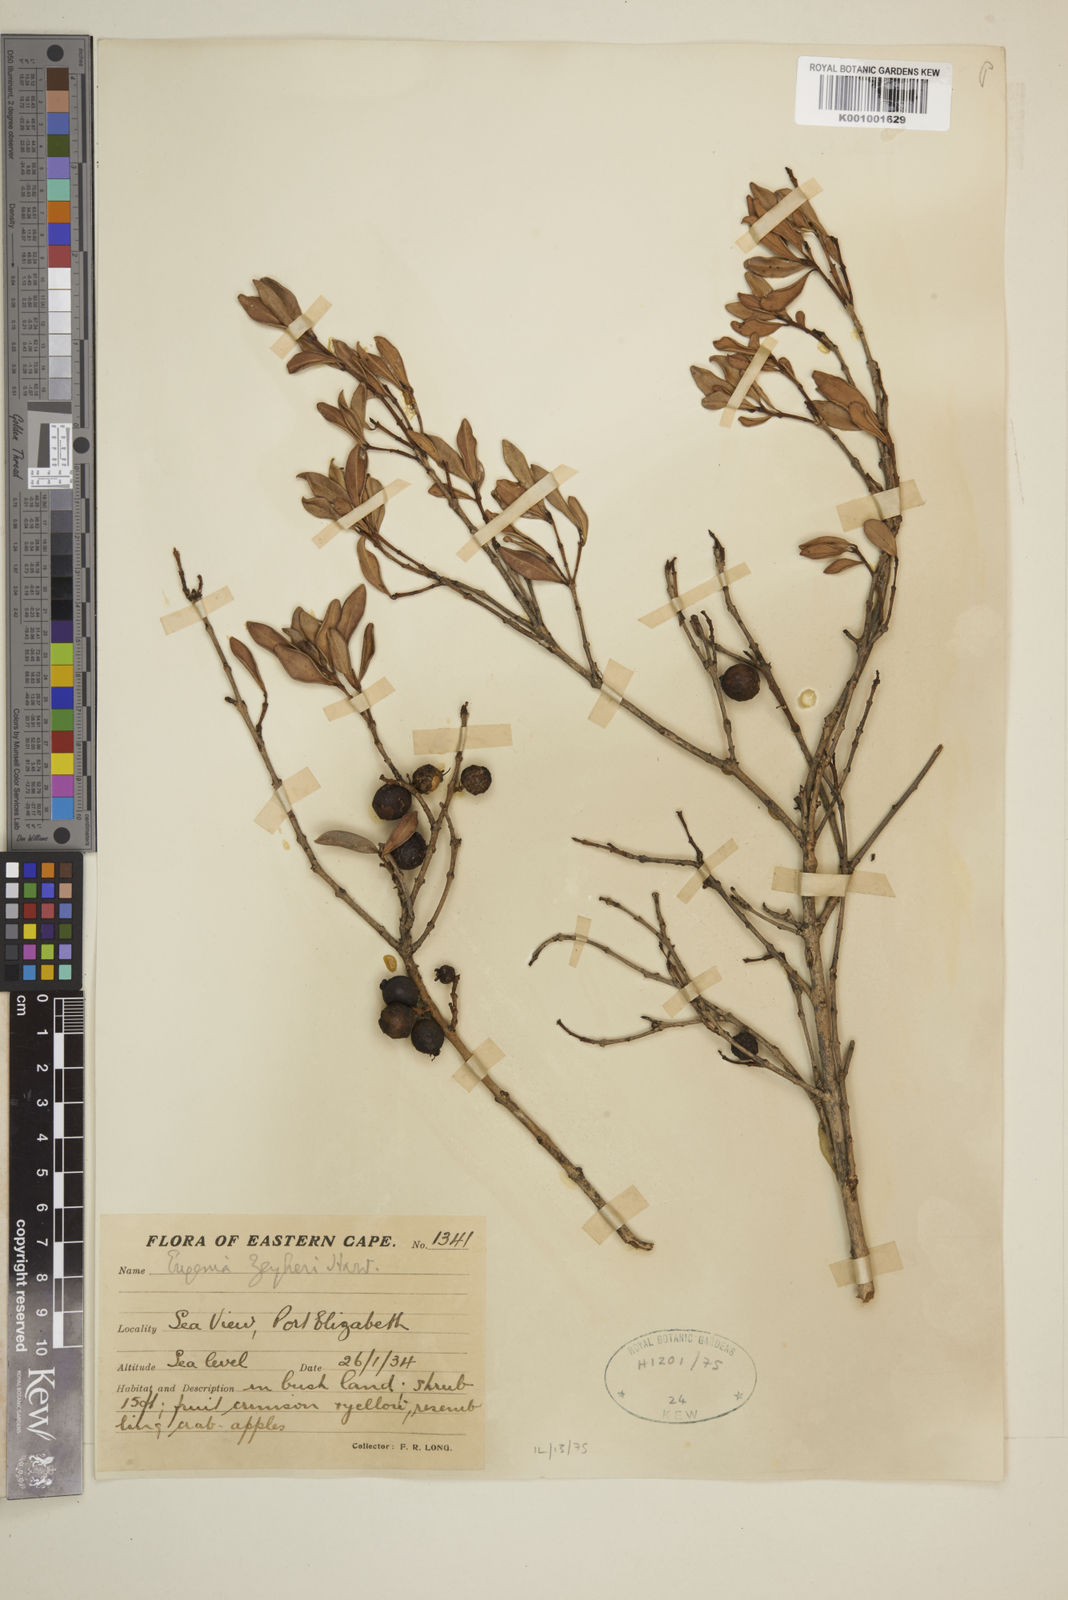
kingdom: Plantae
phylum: Tracheophyta
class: Magnoliopsida
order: Myrtales
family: Myrtaceae
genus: Eugenia
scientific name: Eugenia zeyheri
